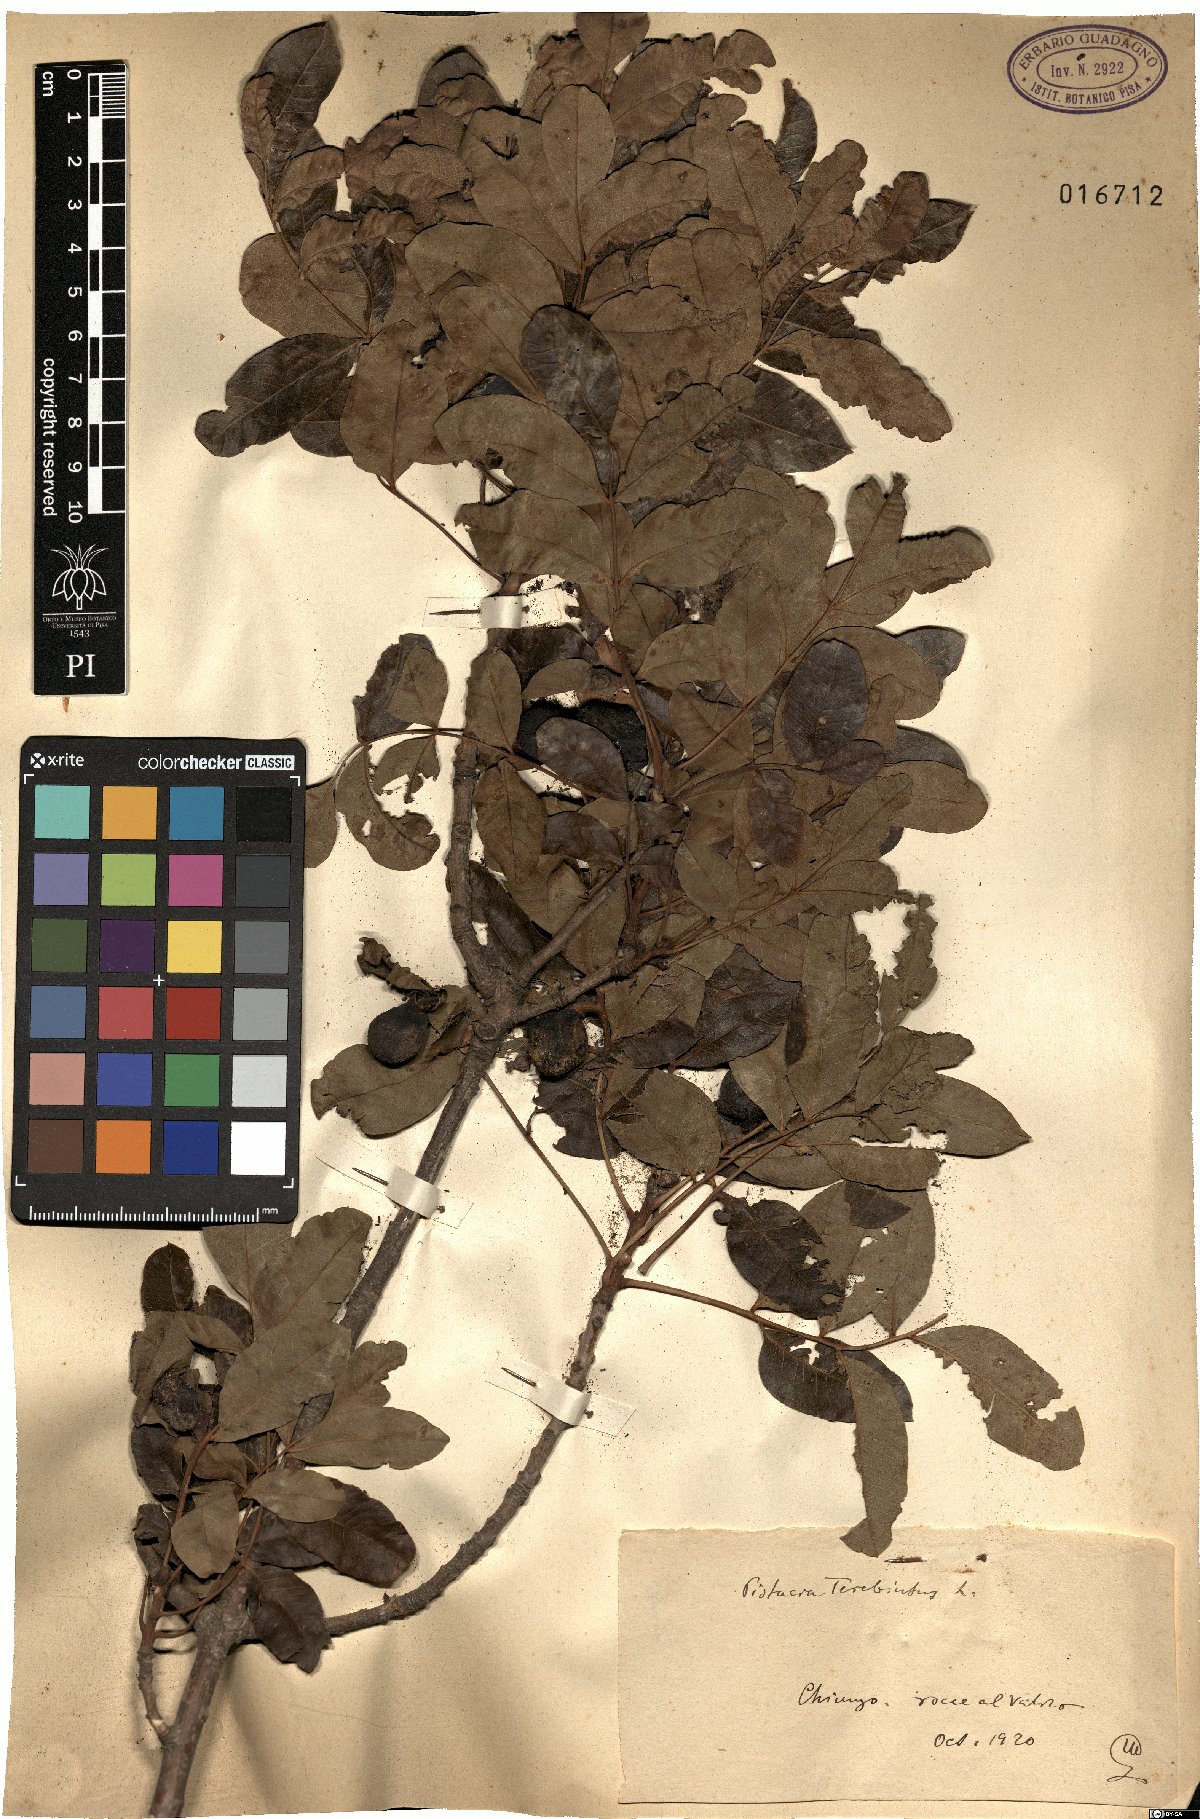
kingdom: Plantae
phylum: Tracheophyta
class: Magnoliopsida
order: Sapindales
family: Anacardiaceae
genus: Pistacia
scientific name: Pistacia terebinthus
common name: Terebinth
